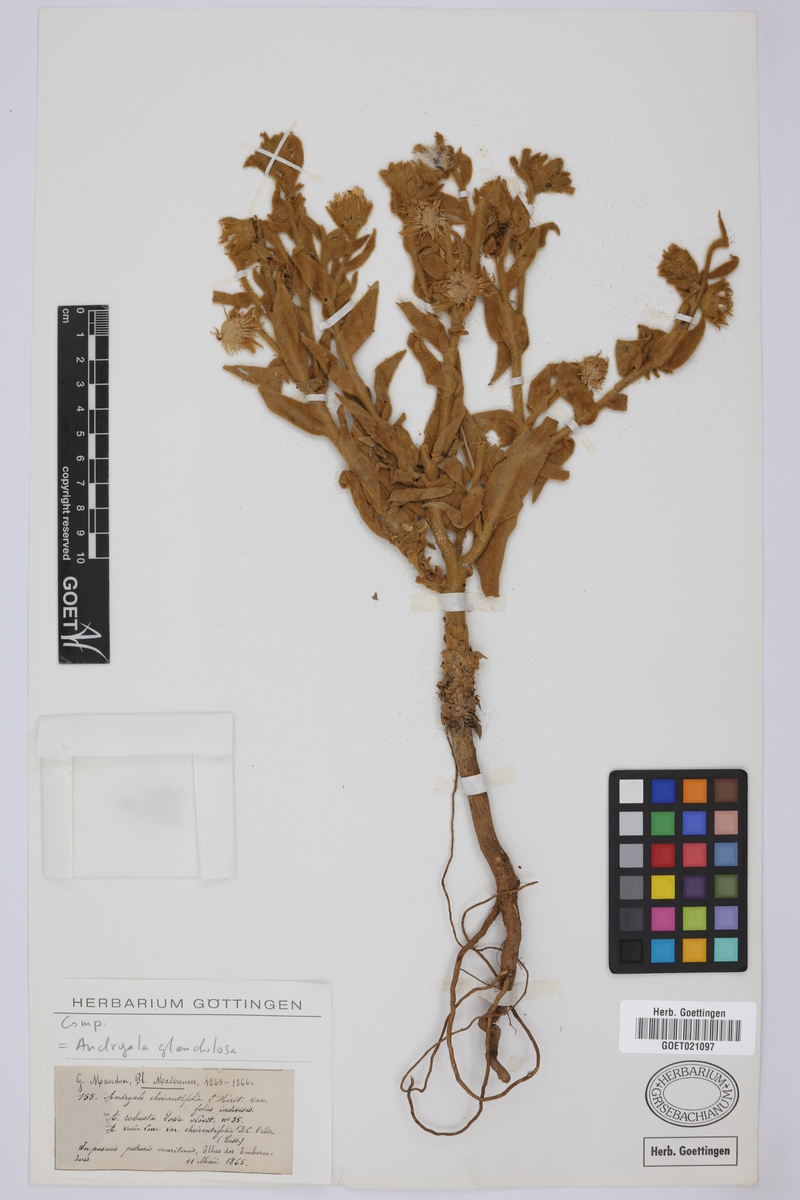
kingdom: Plantae
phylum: Tracheophyta
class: Magnoliopsida
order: Asterales
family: Asteraceae
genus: Andryala
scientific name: Andryala glandulosa
